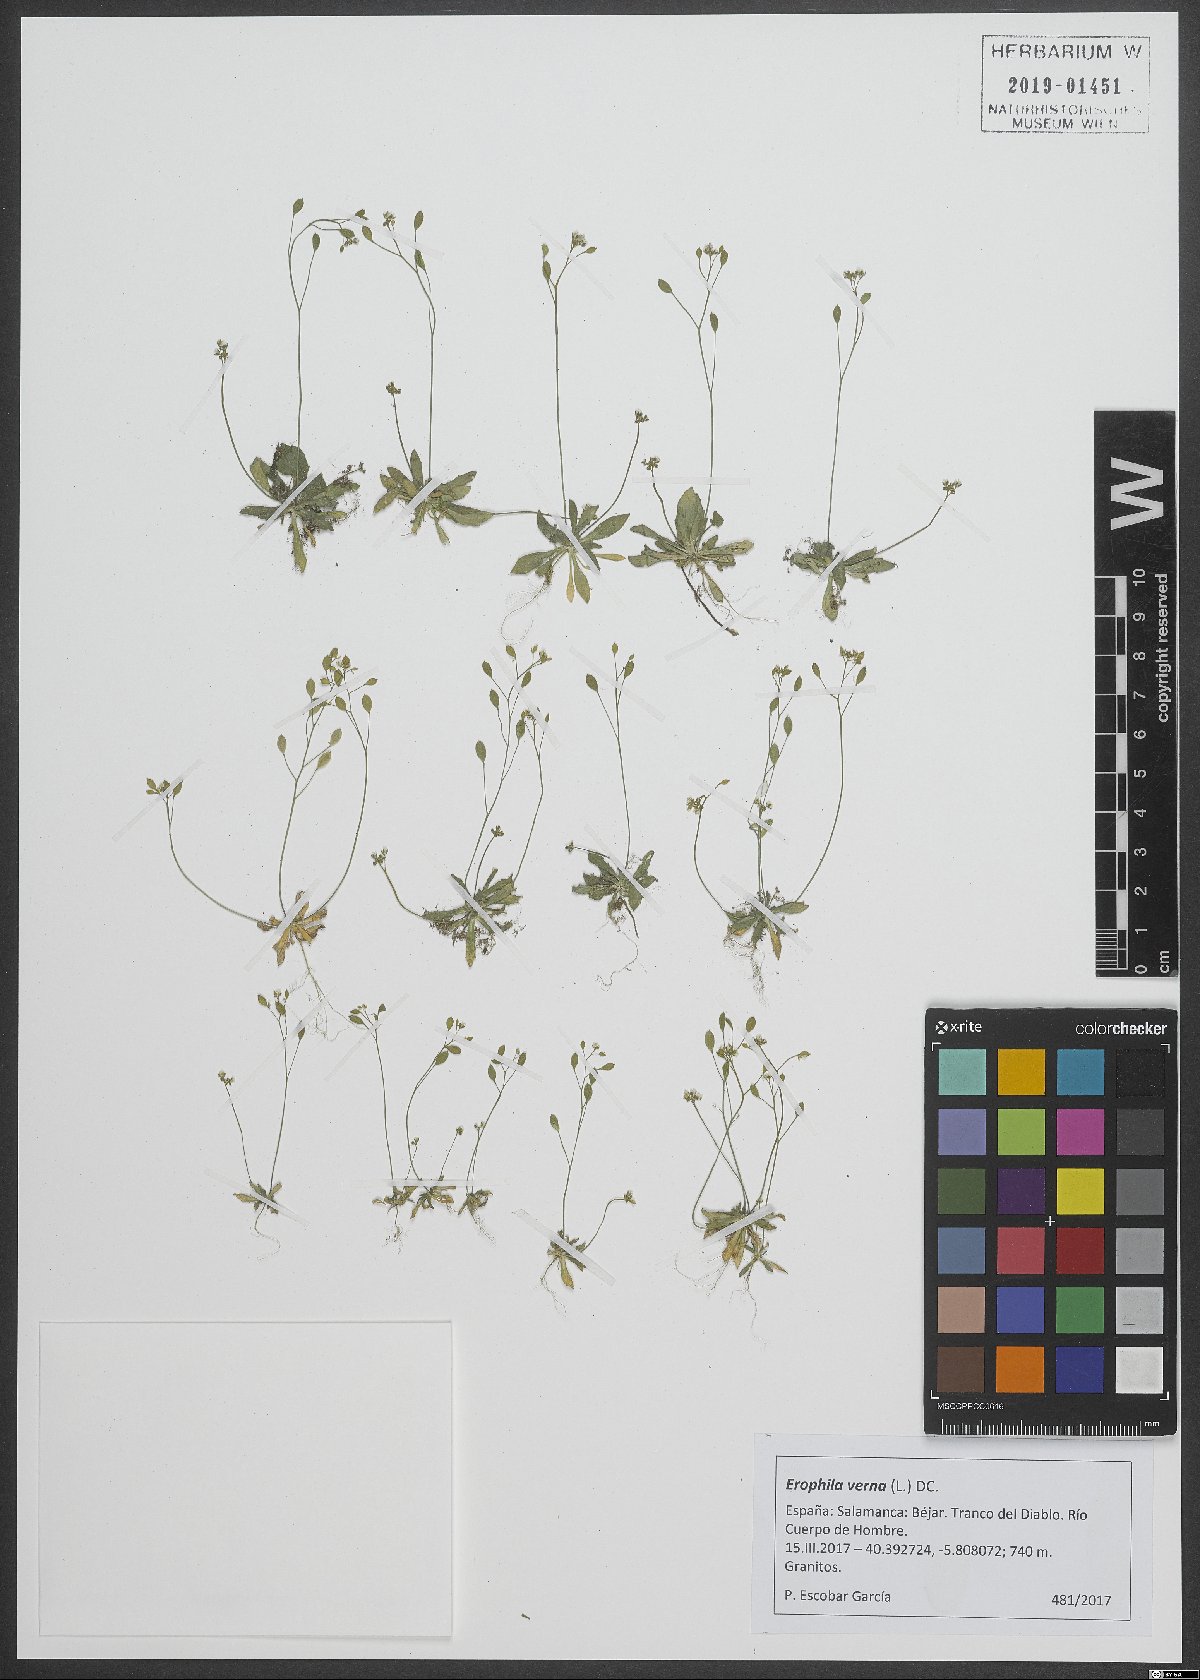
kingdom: Plantae
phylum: Tracheophyta
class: Magnoliopsida
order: Brassicales
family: Brassicaceae
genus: Draba
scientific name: Draba verna
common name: Spring draba
